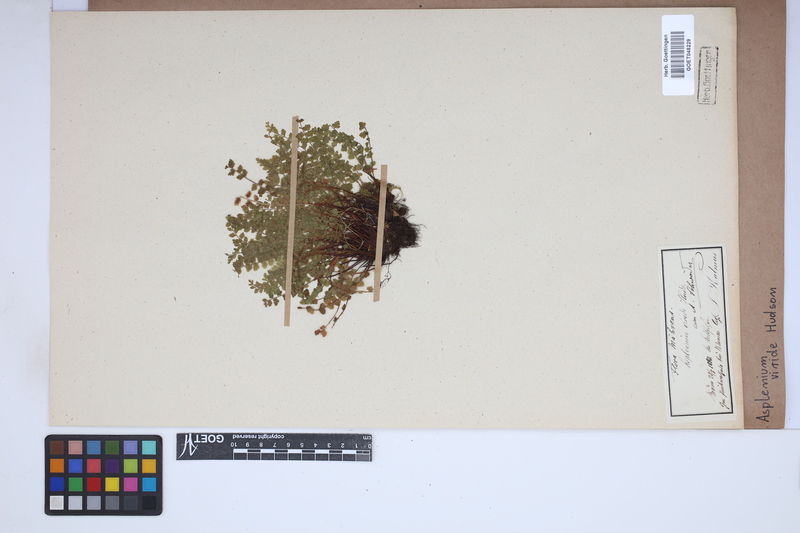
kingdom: Plantae
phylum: Tracheophyta
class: Polypodiopsida
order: Polypodiales
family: Aspleniaceae
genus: Asplenium
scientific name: Asplenium viride
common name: Green spleenwort
